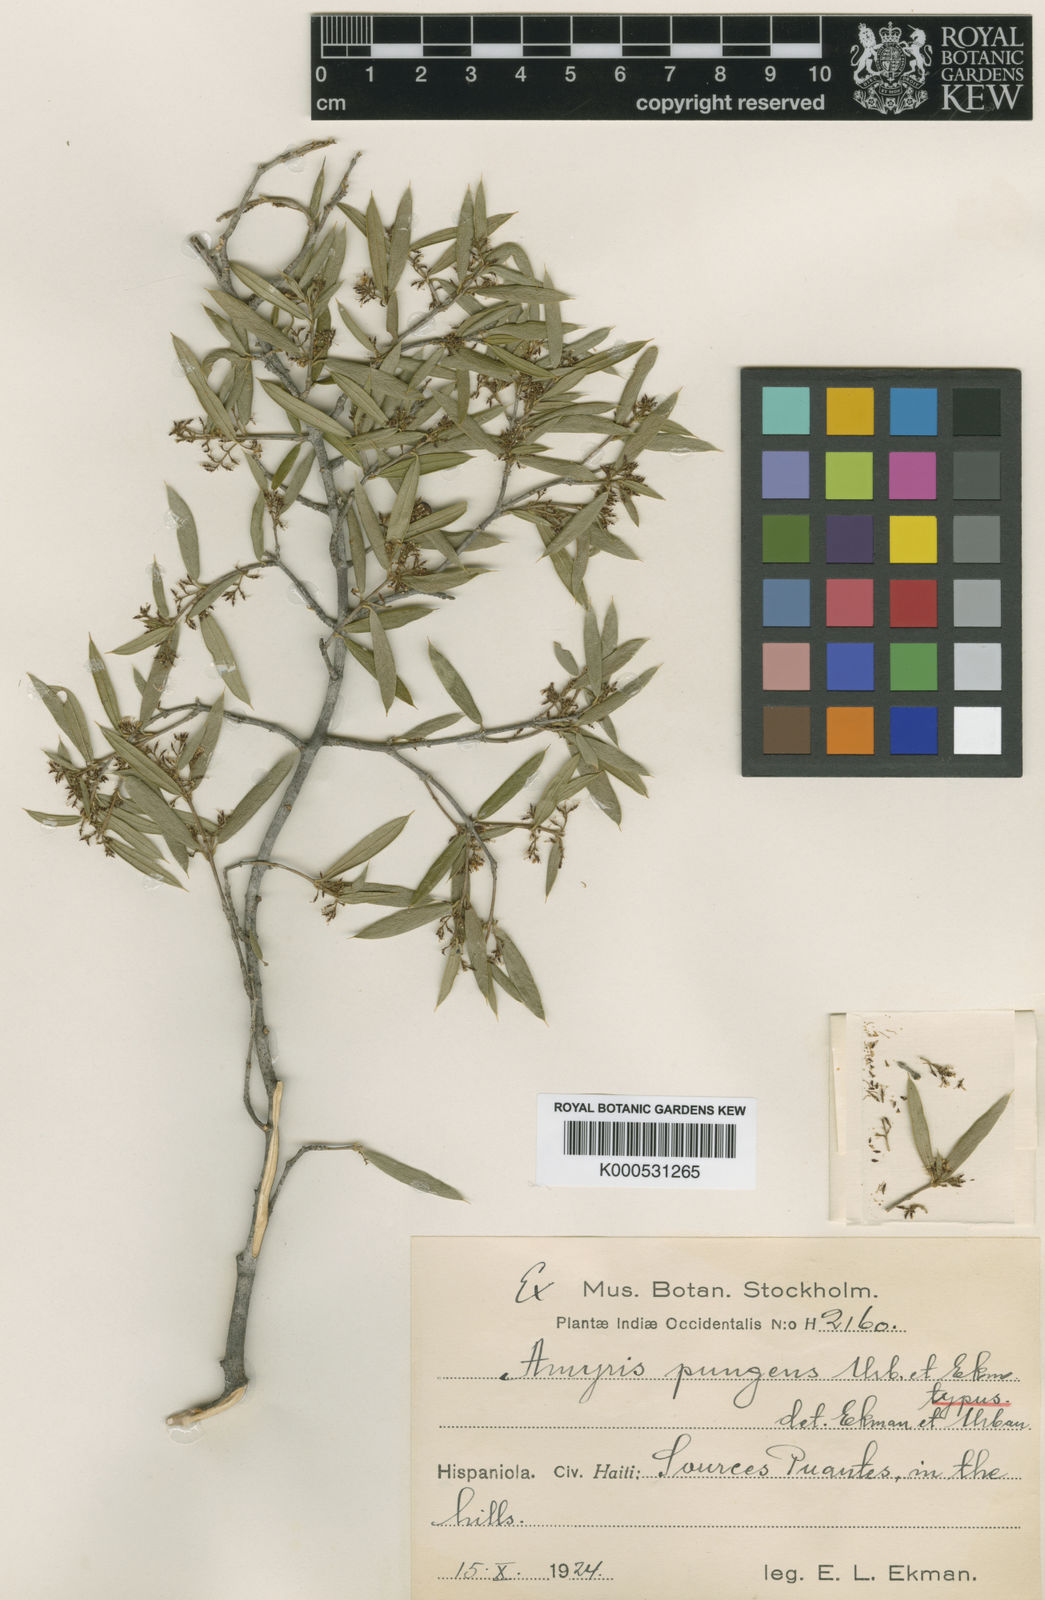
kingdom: Plantae
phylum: Tracheophyta
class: Magnoliopsida
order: Sapindales
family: Rutaceae
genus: Amyris
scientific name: Amyris pungens
